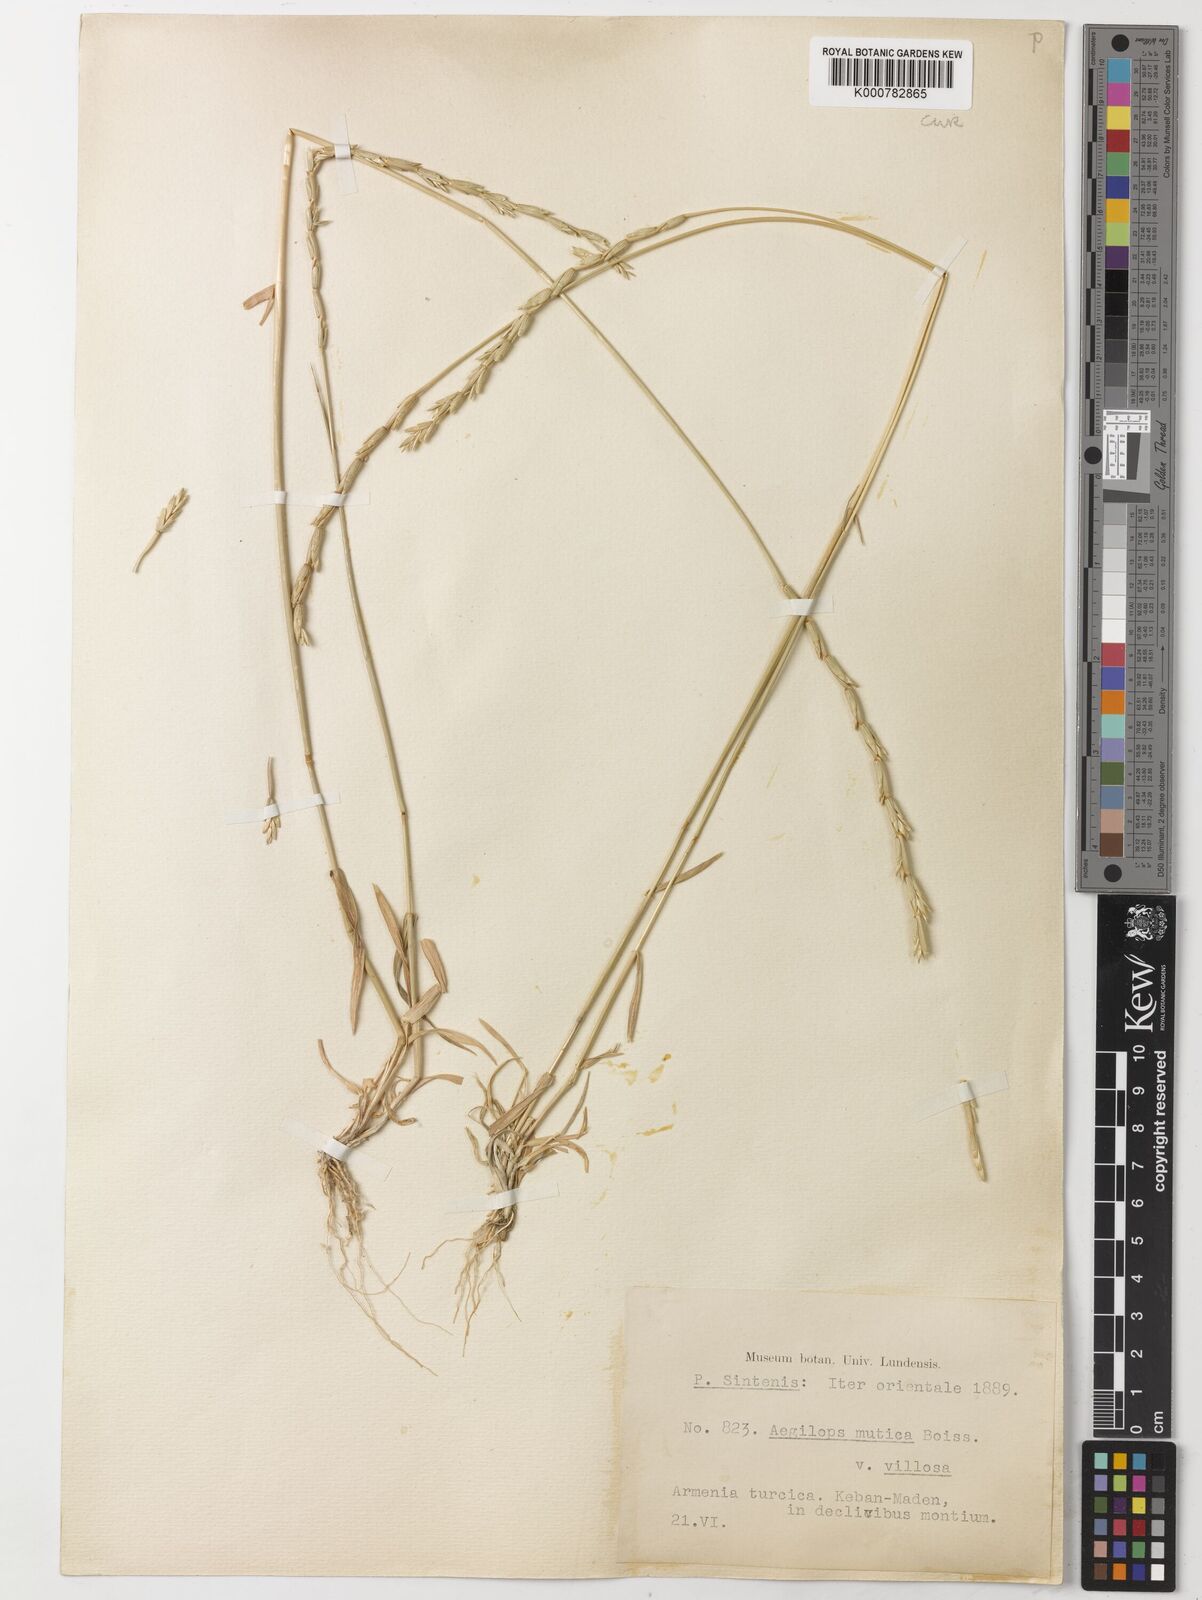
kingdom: Plantae
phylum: Tracheophyta
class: Liliopsida
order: Poales
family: Poaceae
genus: Aegilops
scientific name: Aegilops mutica
